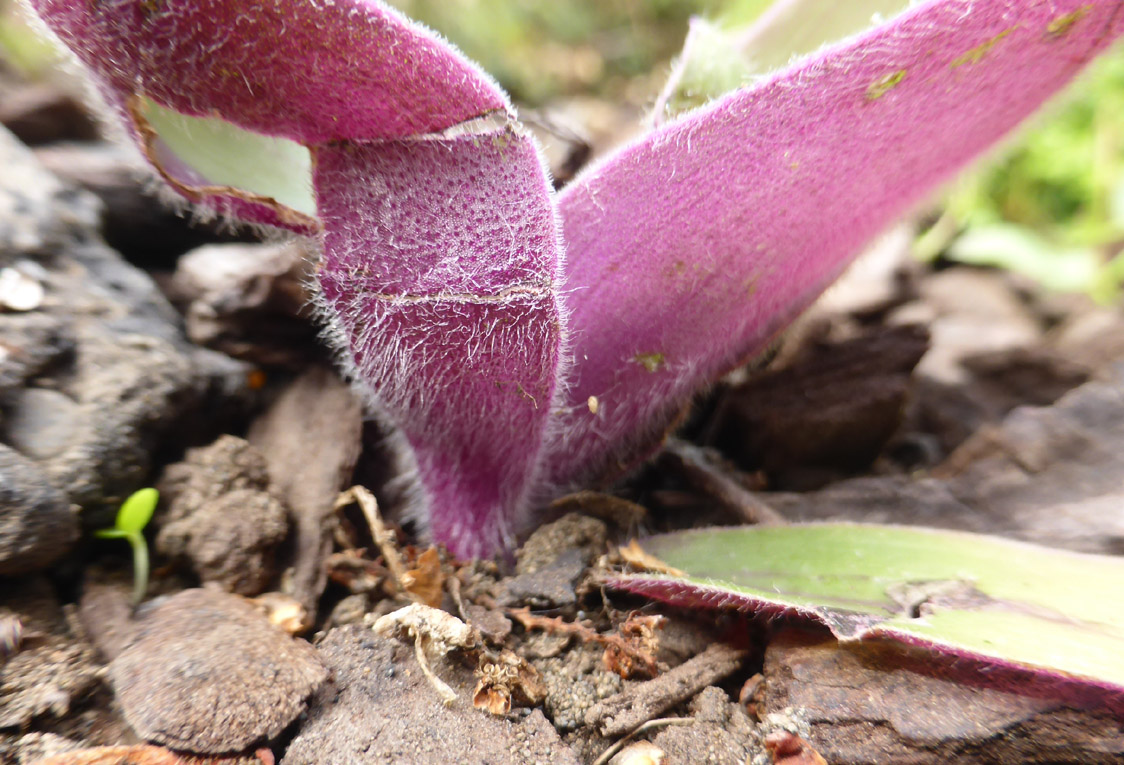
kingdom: Plantae
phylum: Tracheophyta
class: Liliopsida
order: Commelinales
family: Commelinaceae
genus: Tradescantia
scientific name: Tradescantia cerinthoides
